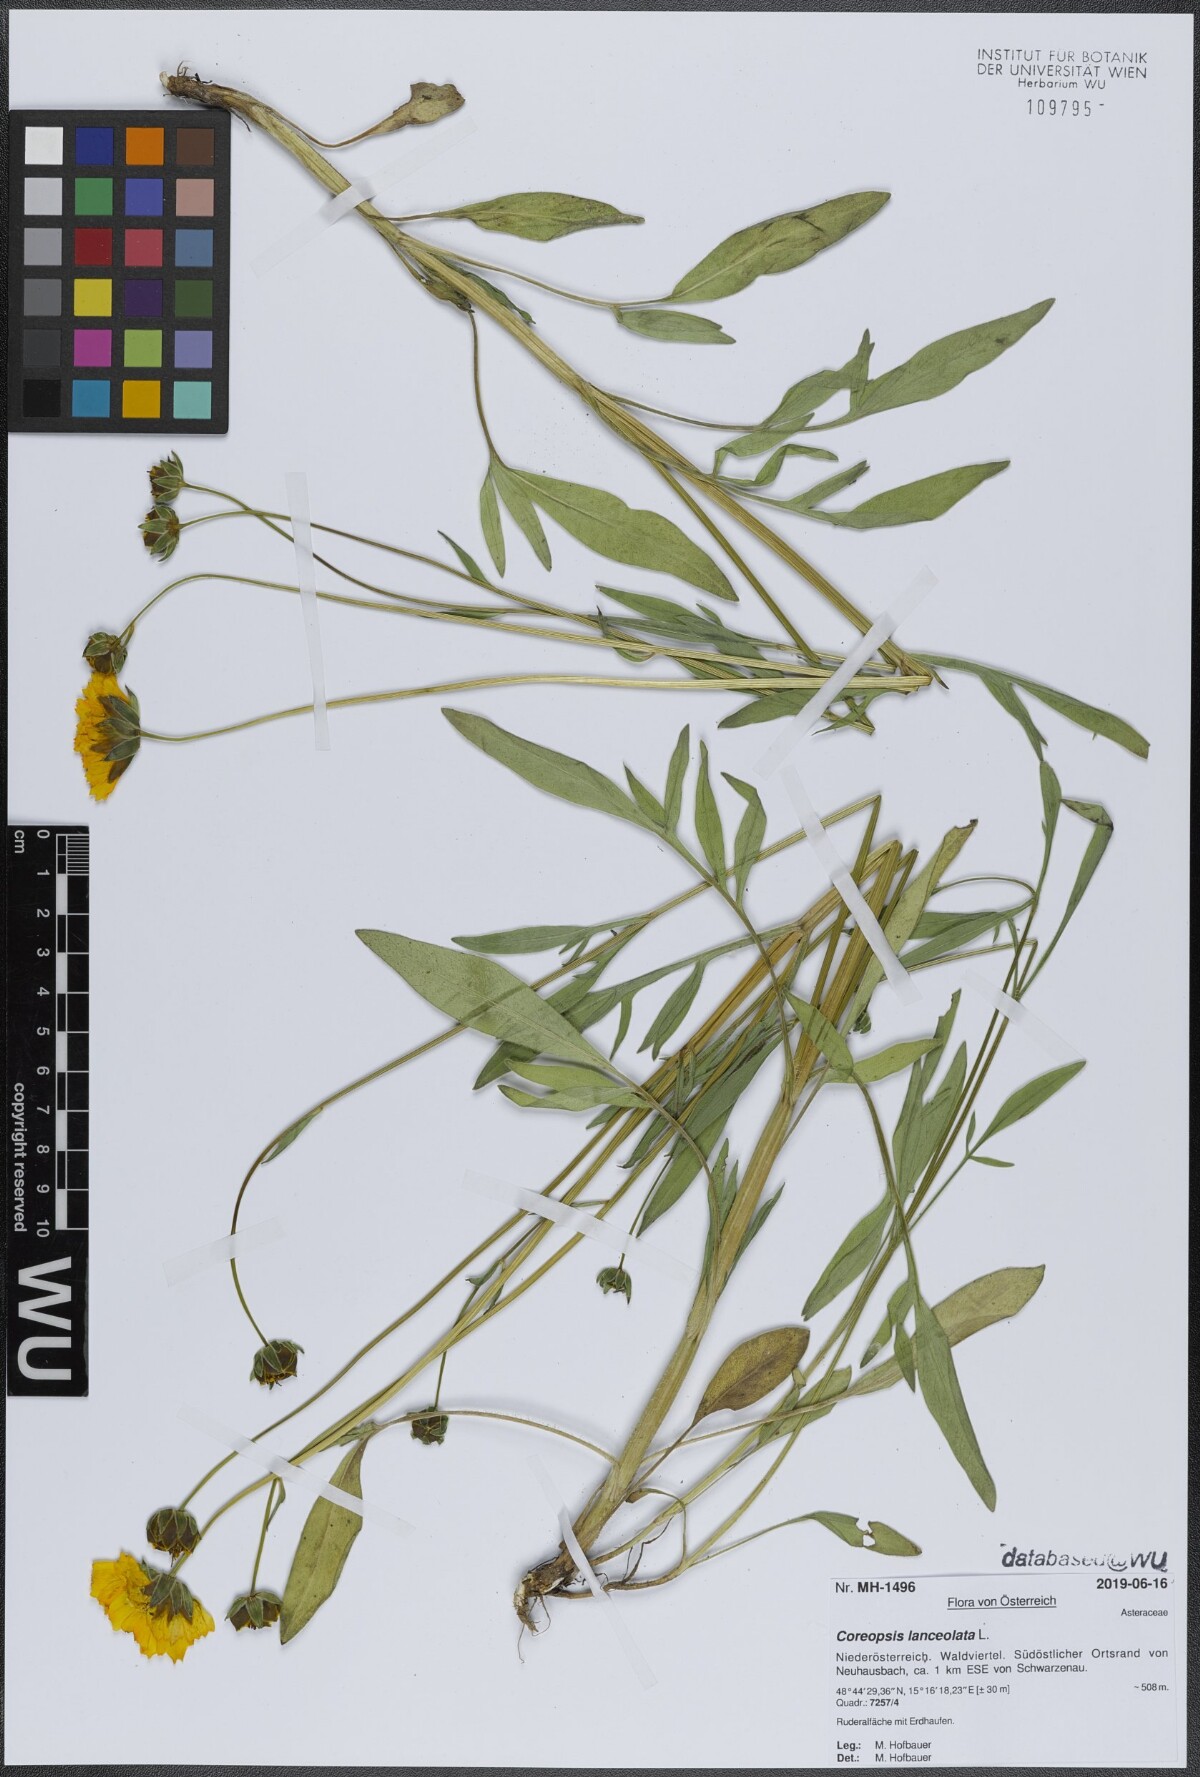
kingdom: Plantae
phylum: Tracheophyta
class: Magnoliopsida
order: Asterales
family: Asteraceae
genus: Coreopsis
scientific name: Coreopsis lanceolata
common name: Garden coreopsis
